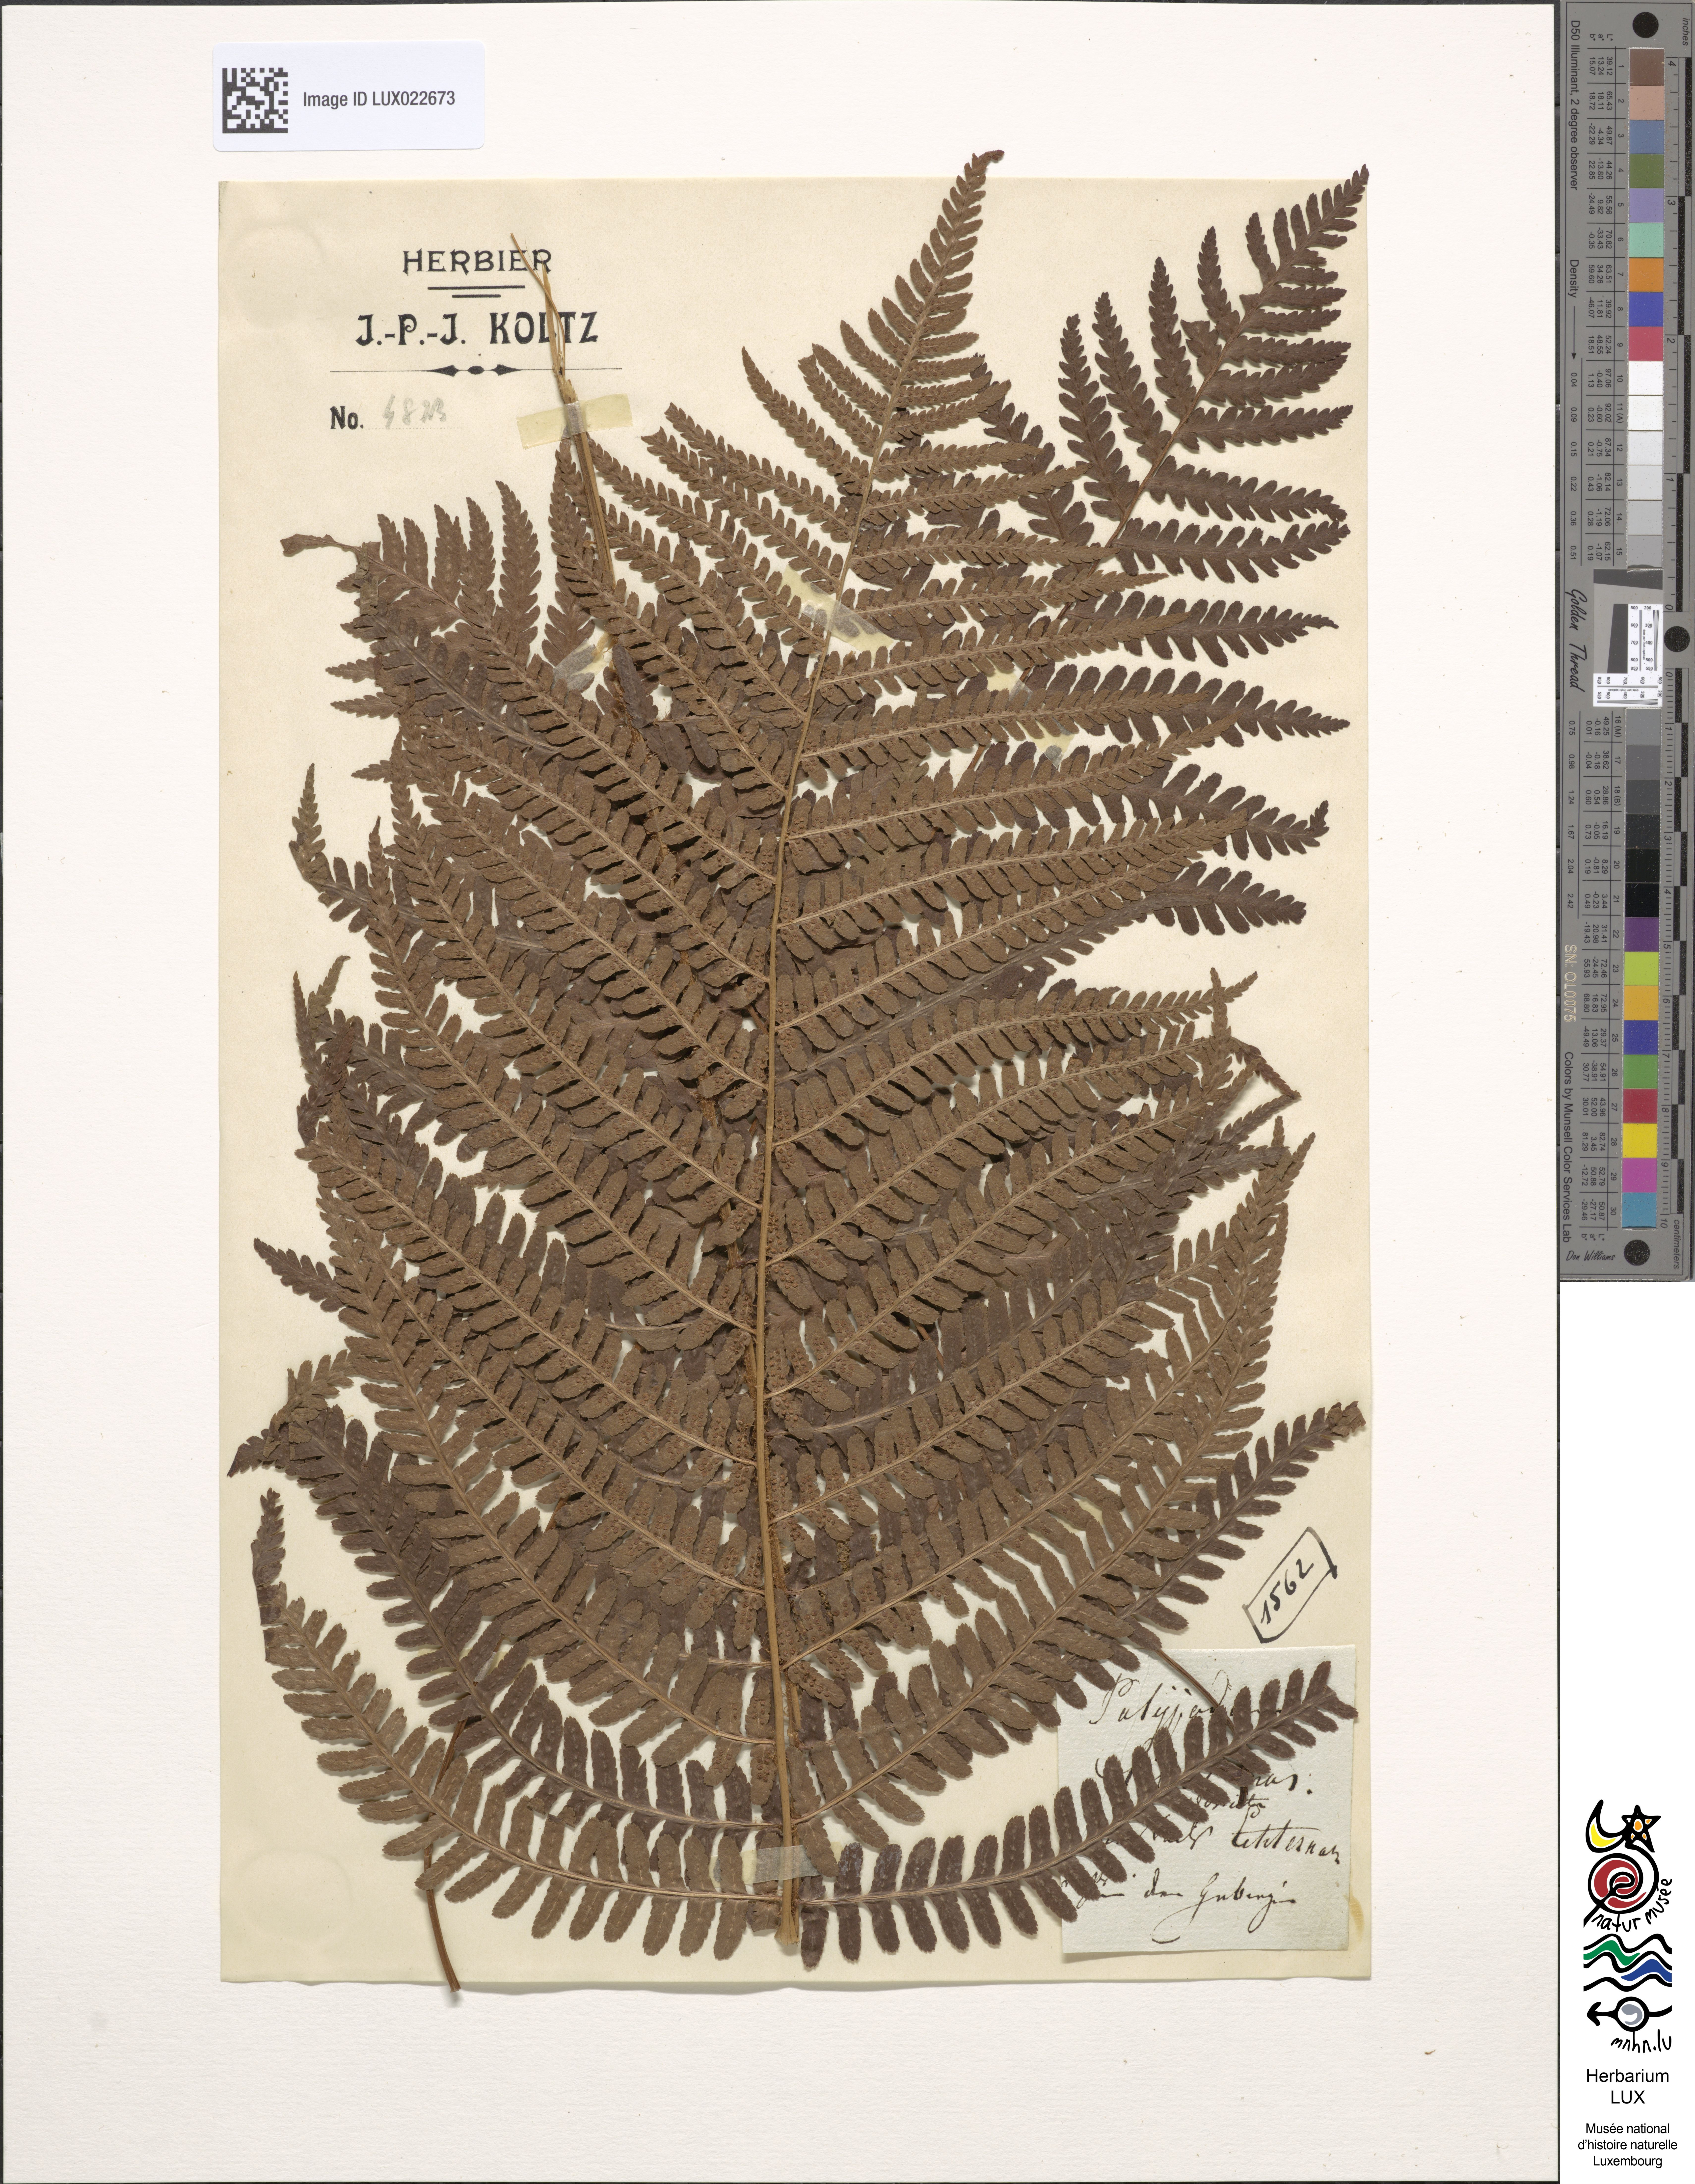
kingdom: Plantae
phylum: Tracheophyta
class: Polypodiopsida
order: Polypodiales
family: Dryopteridaceae
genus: Dryopteris
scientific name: Dryopteris filix-mas
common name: Male fern
